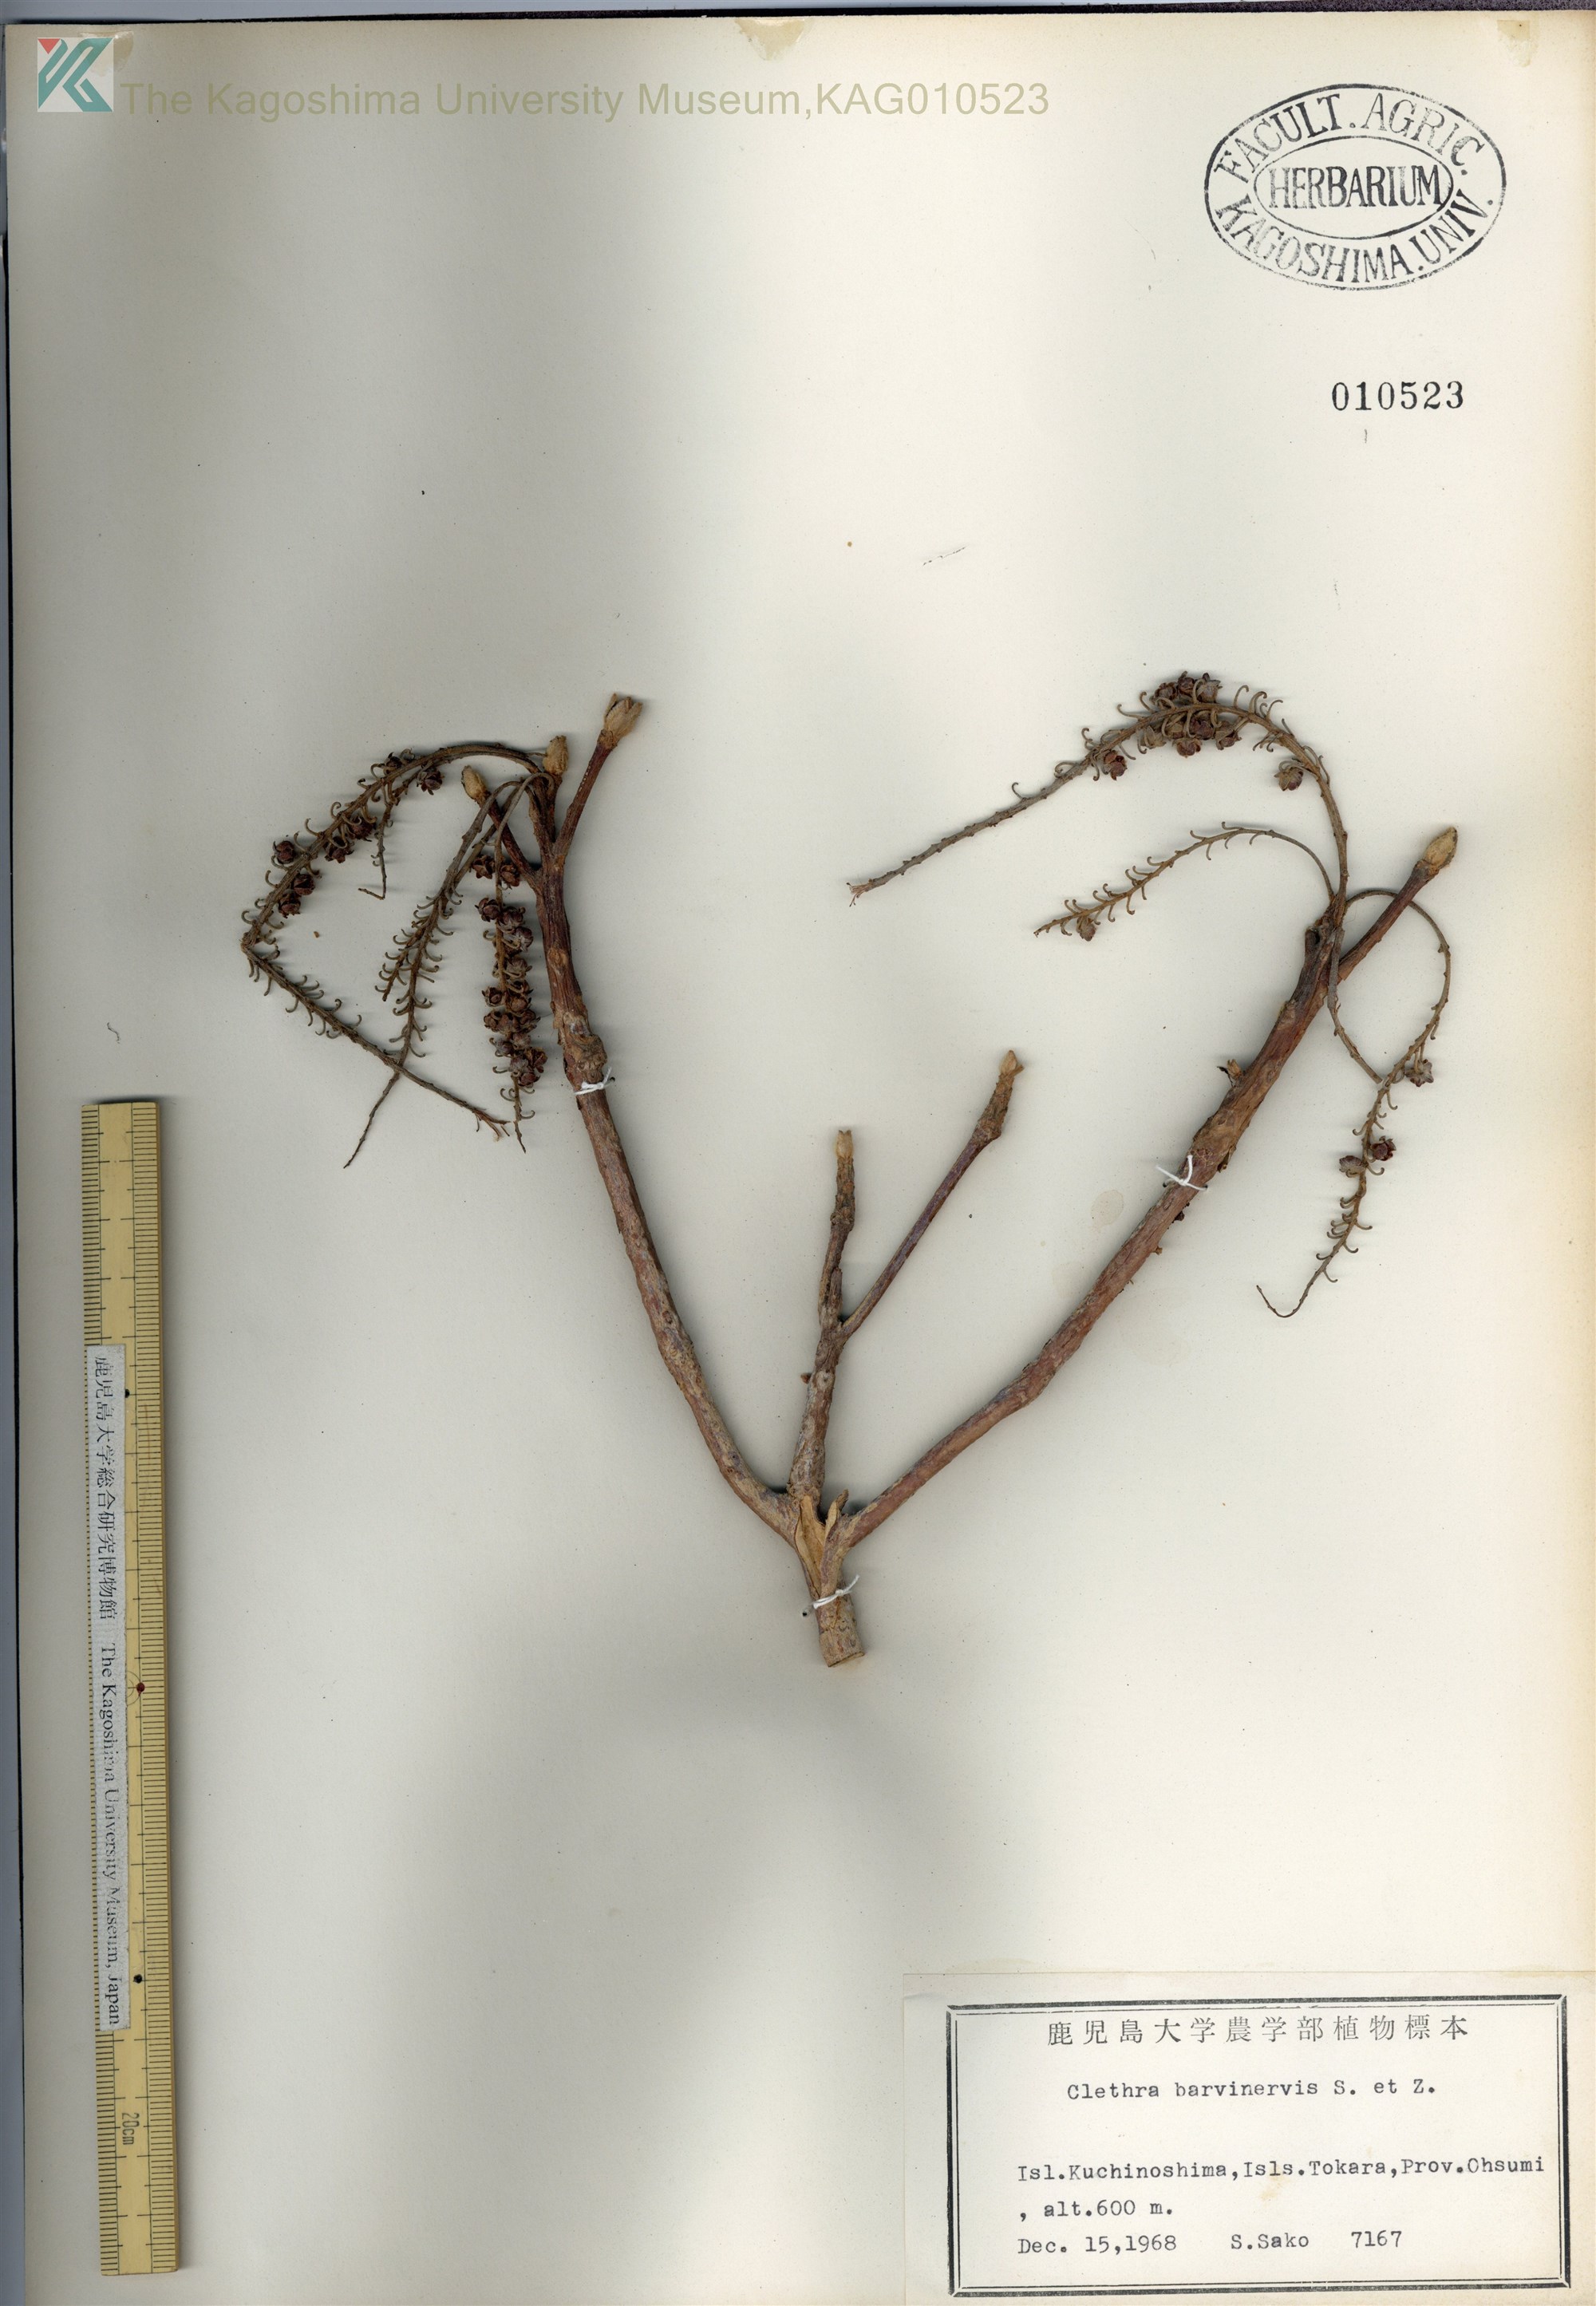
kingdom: Plantae
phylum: Tracheophyta
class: Magnoliopsida
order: Ericales
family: Clethraceae
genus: Clethra
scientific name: Clethra barbinervis
